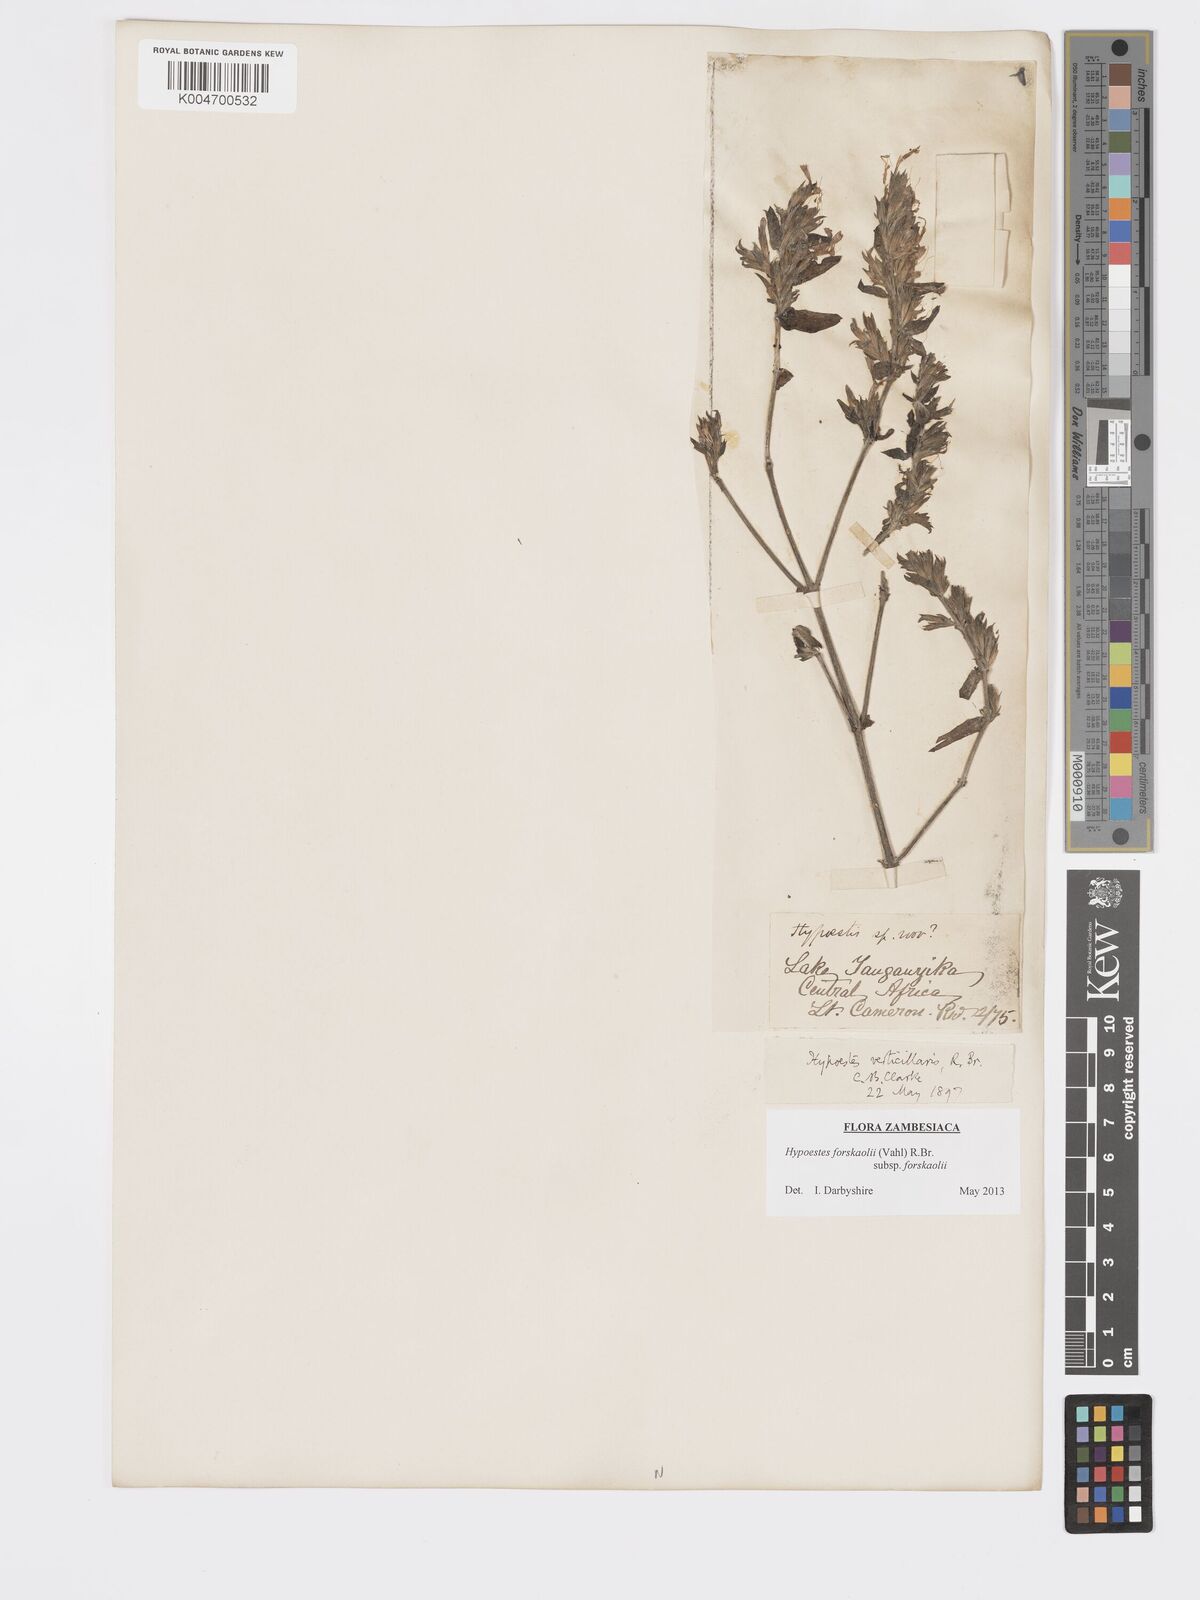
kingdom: Plantae
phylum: Tracheophyta
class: Magnoliopsida
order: Lamiales
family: Acanthaceae
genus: Hypoestes
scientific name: Hypoestes forskaolii
